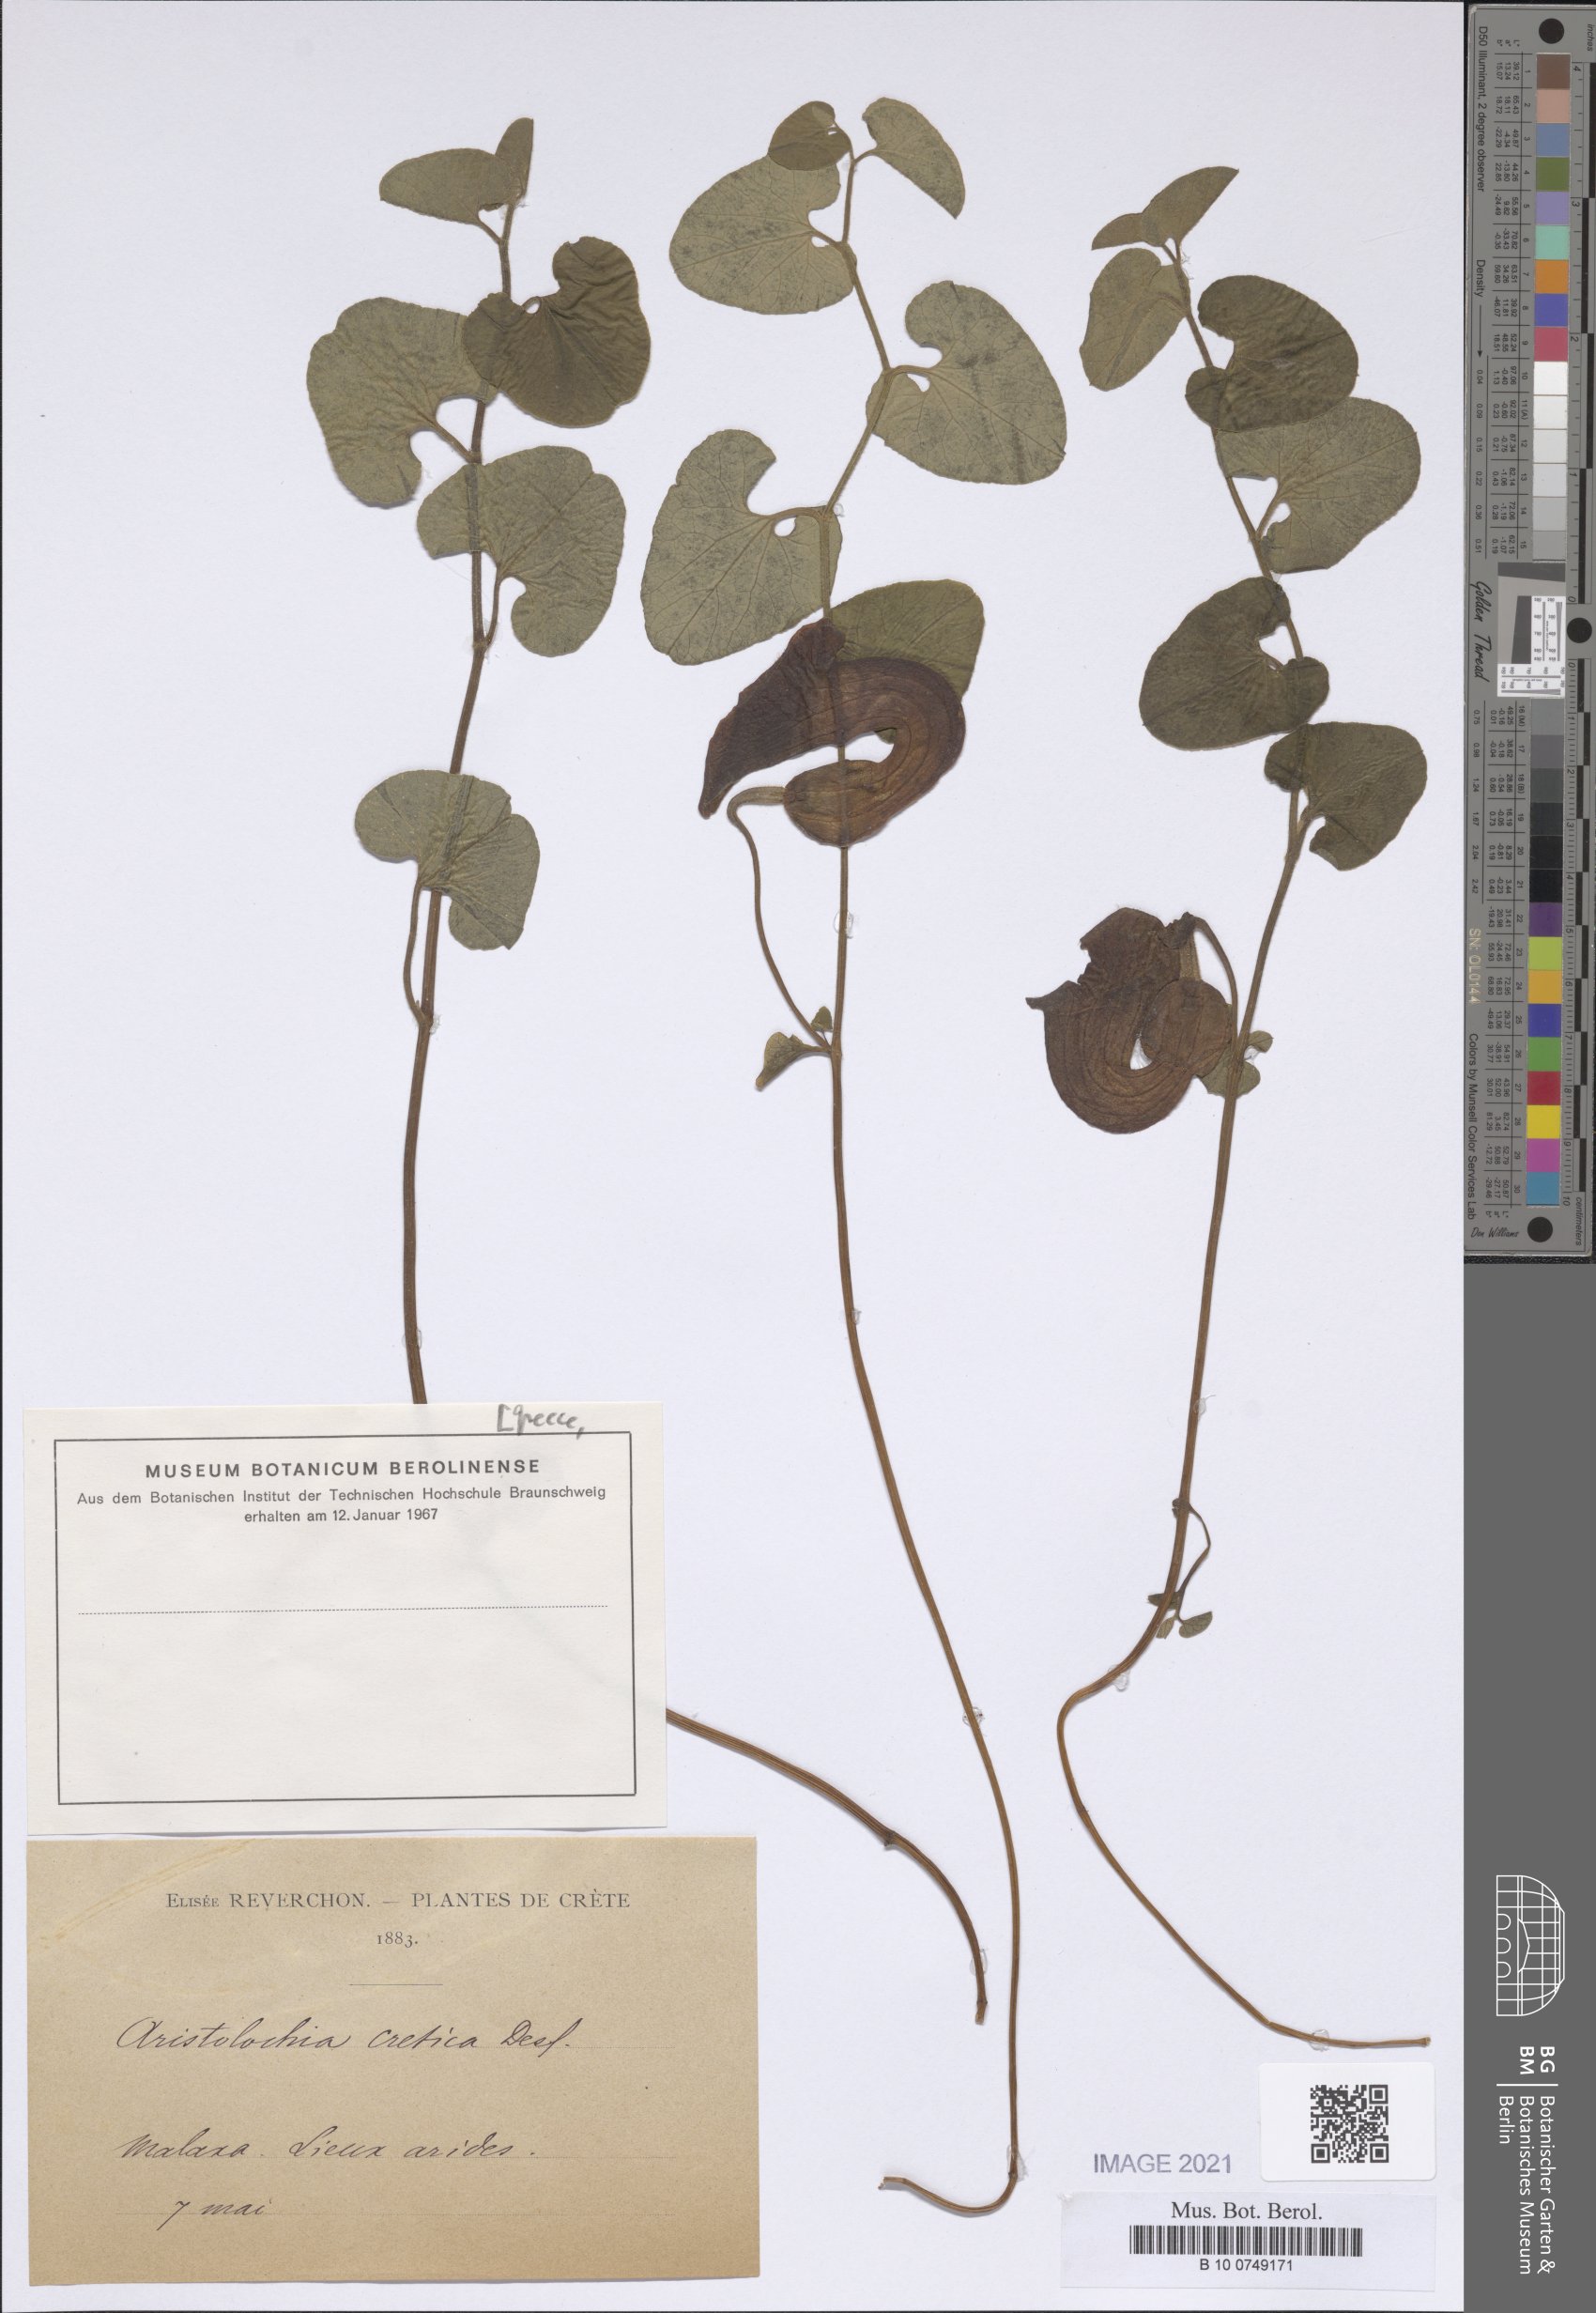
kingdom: Plantae
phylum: Tracheophyta
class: Magnoliopsida
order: Piperales
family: Aristolochiaceae
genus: Aristolochia
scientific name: Aristolochia cretica
